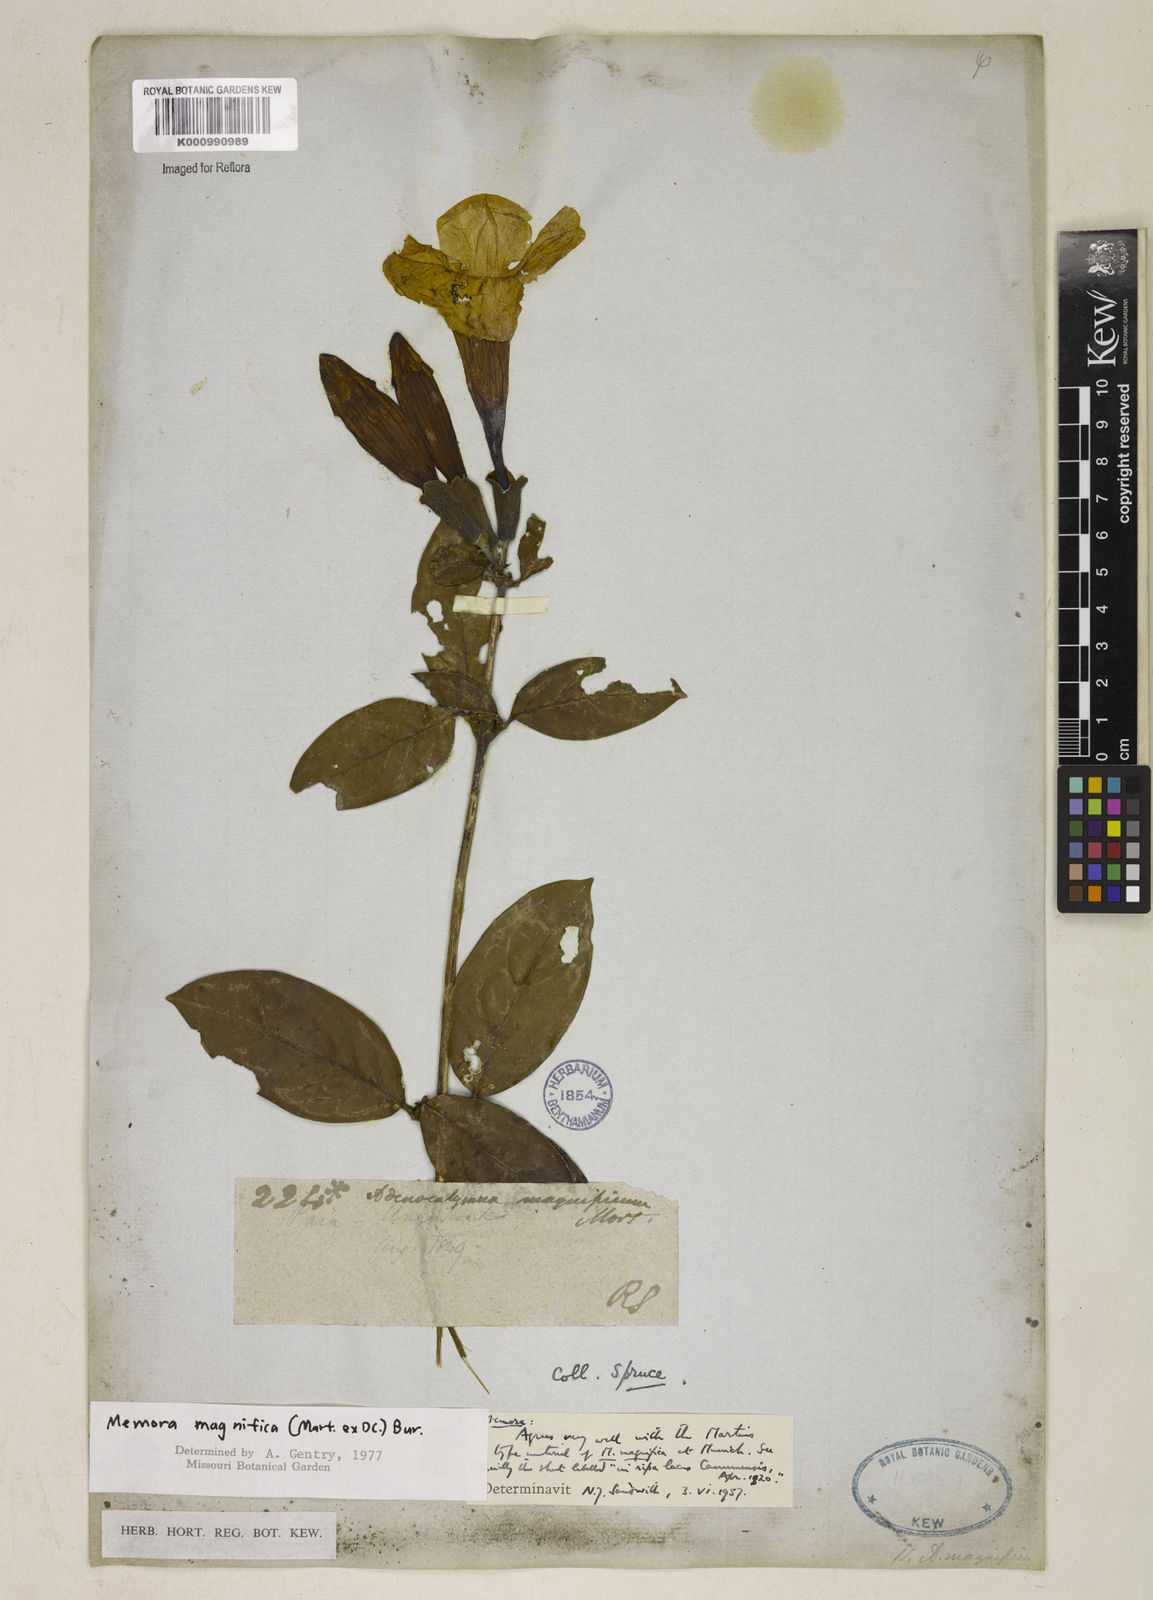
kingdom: Plantae
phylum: Tracheophyta
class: Magnoliopsida
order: Lamiales
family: Bignoniaceae
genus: Adenocalymma
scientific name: Adenocalymma magnificum
